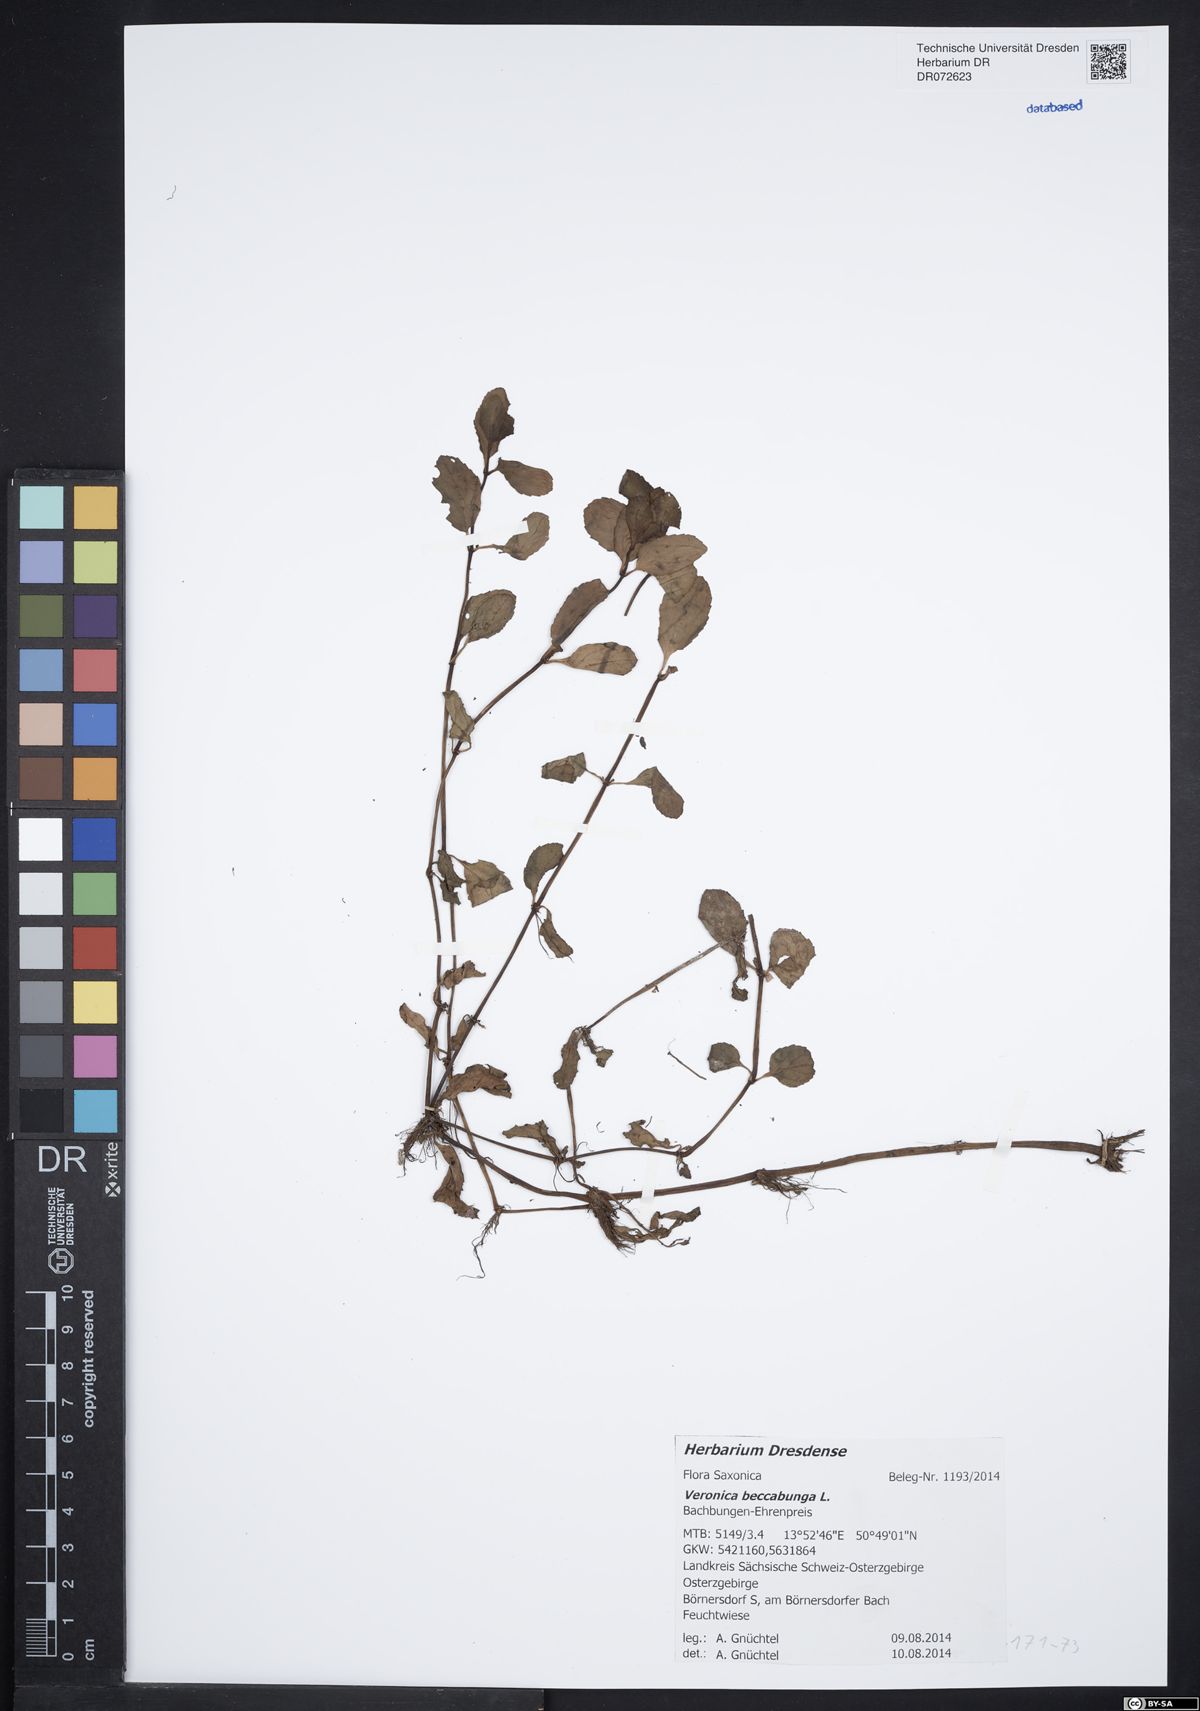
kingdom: Plantae
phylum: Tracheophyta
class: Magnoliopsida
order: Lamiales
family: Plantaginaceae
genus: Veronica
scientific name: Veronica beccabunga
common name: Brooklime
